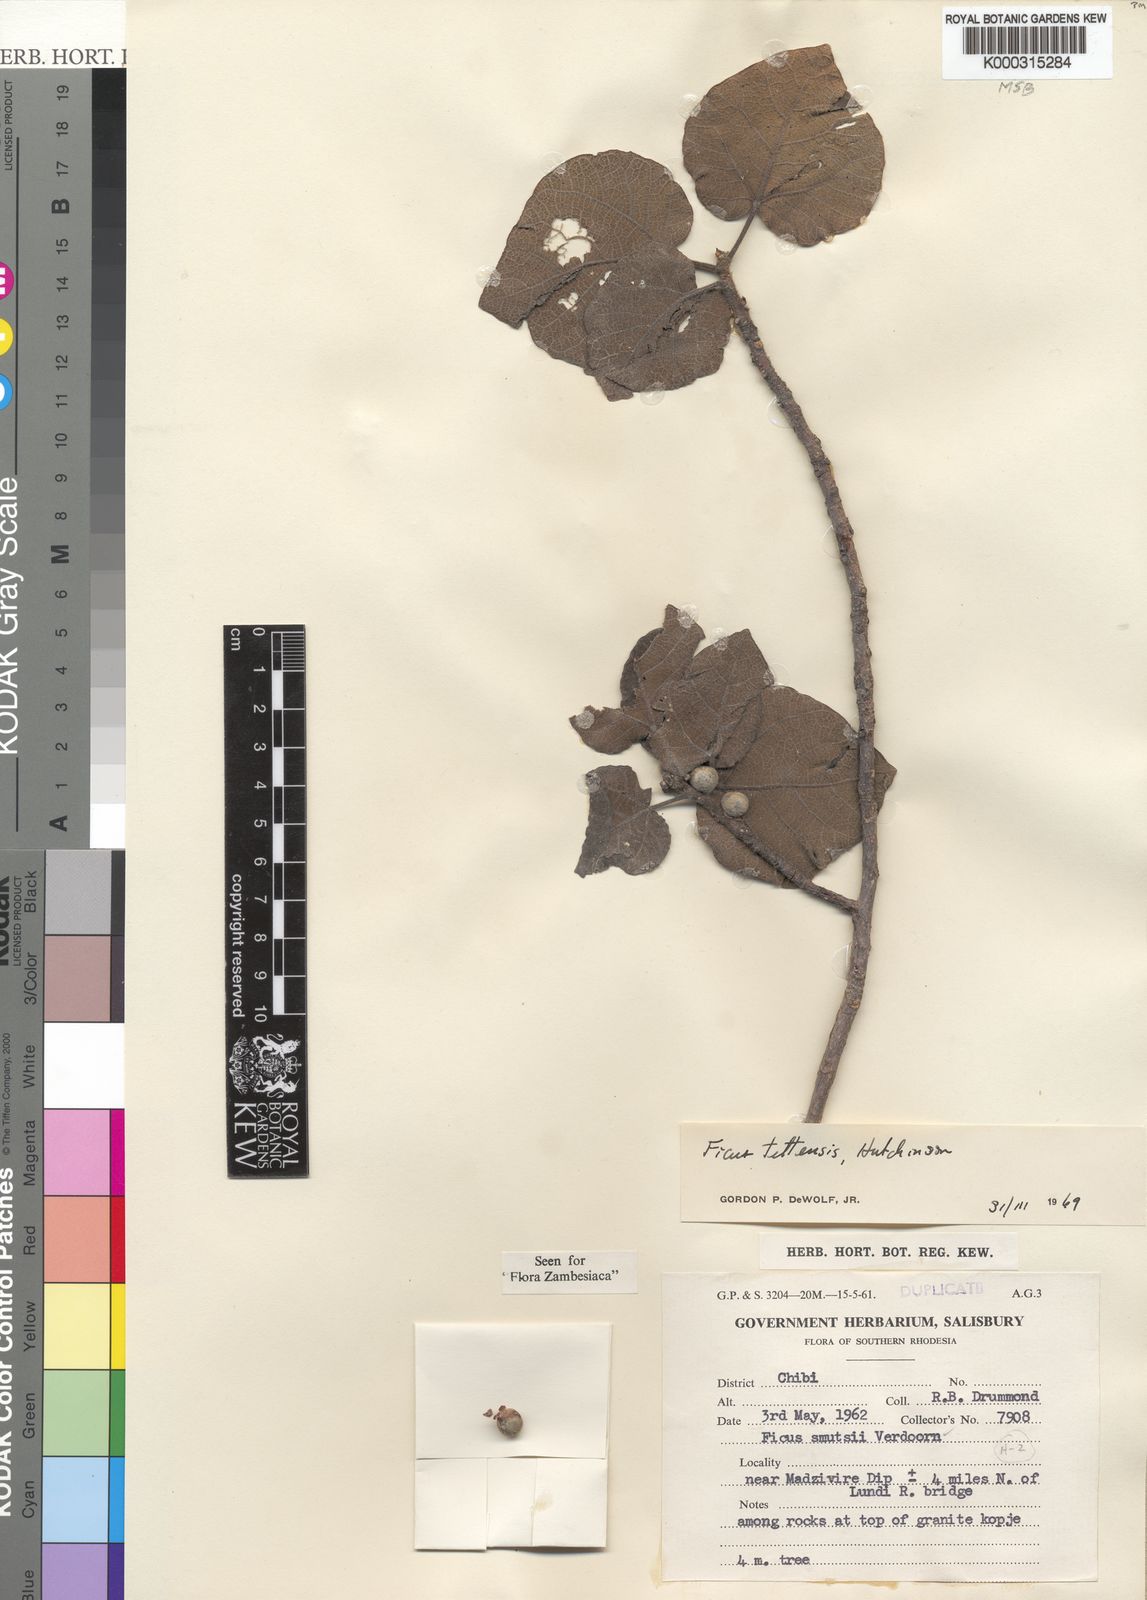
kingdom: Plantae
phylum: Tracheophyta
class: Magnoliopsida
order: Rosales
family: Moraceae
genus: Ficus
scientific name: Ficus tettensis
